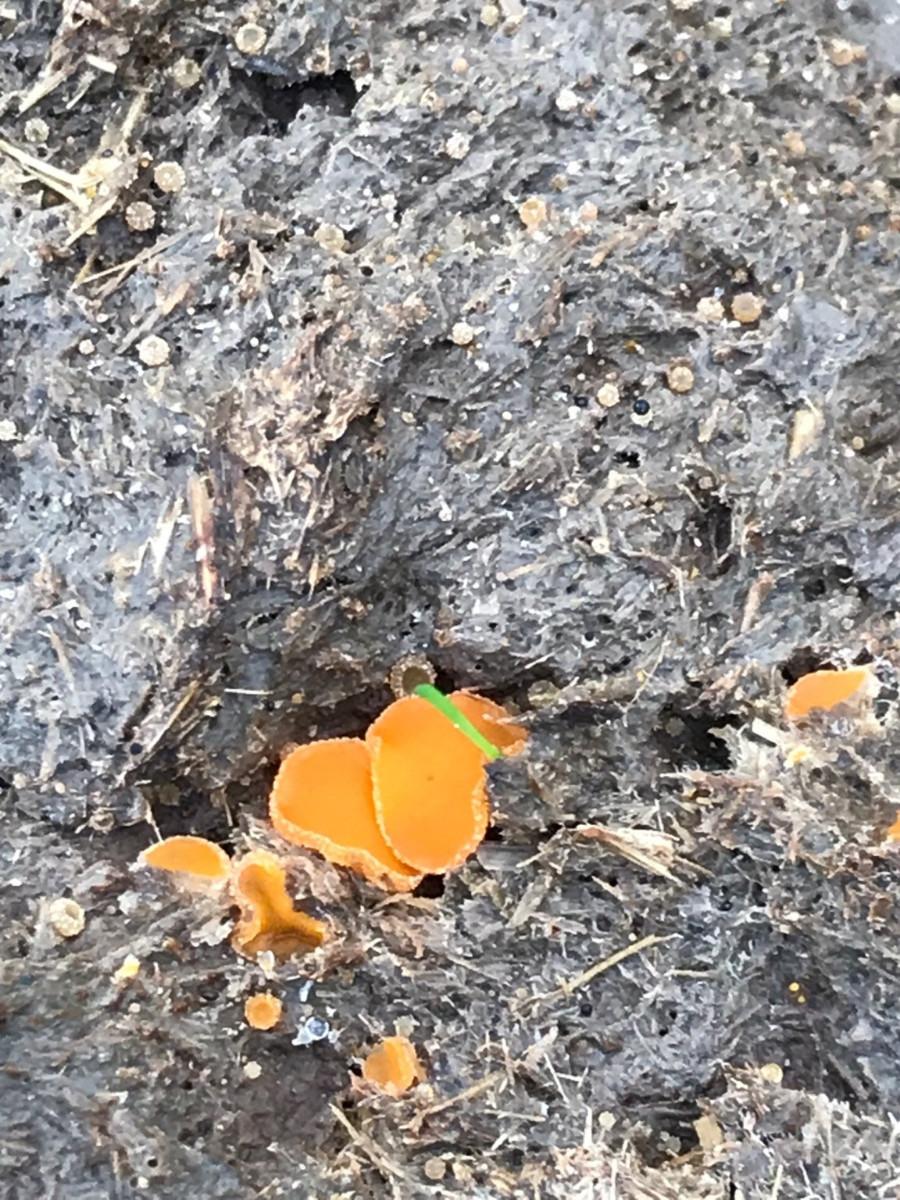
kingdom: Fungi
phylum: Ascomycota
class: Pezizomycetes
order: Pezizales
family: Pyronemataceae
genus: Cheilymenia
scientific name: Cheilymenia granulata
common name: møgbæger
